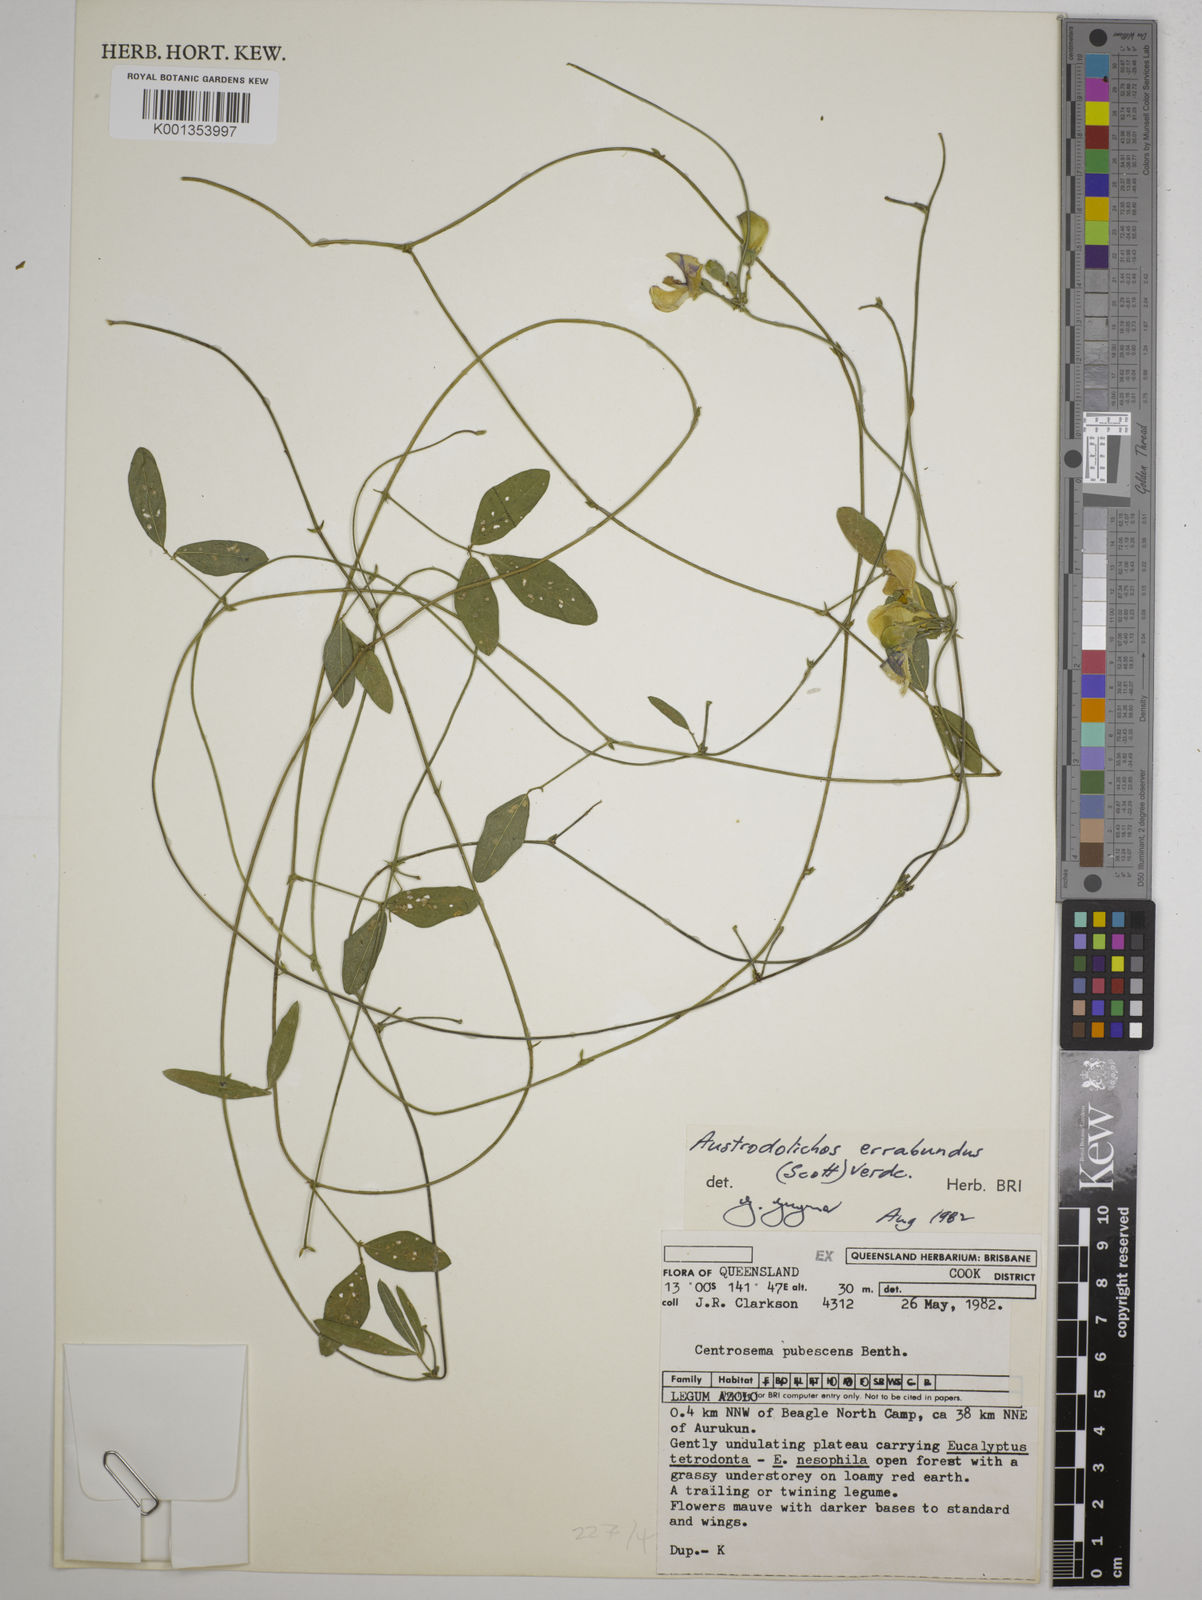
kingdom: Plantae
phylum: Tracheophyta
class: Magnoliopsida
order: Fabales
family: Fabaceae
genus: Austrodolichos
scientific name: Austrodolichos errabundus
